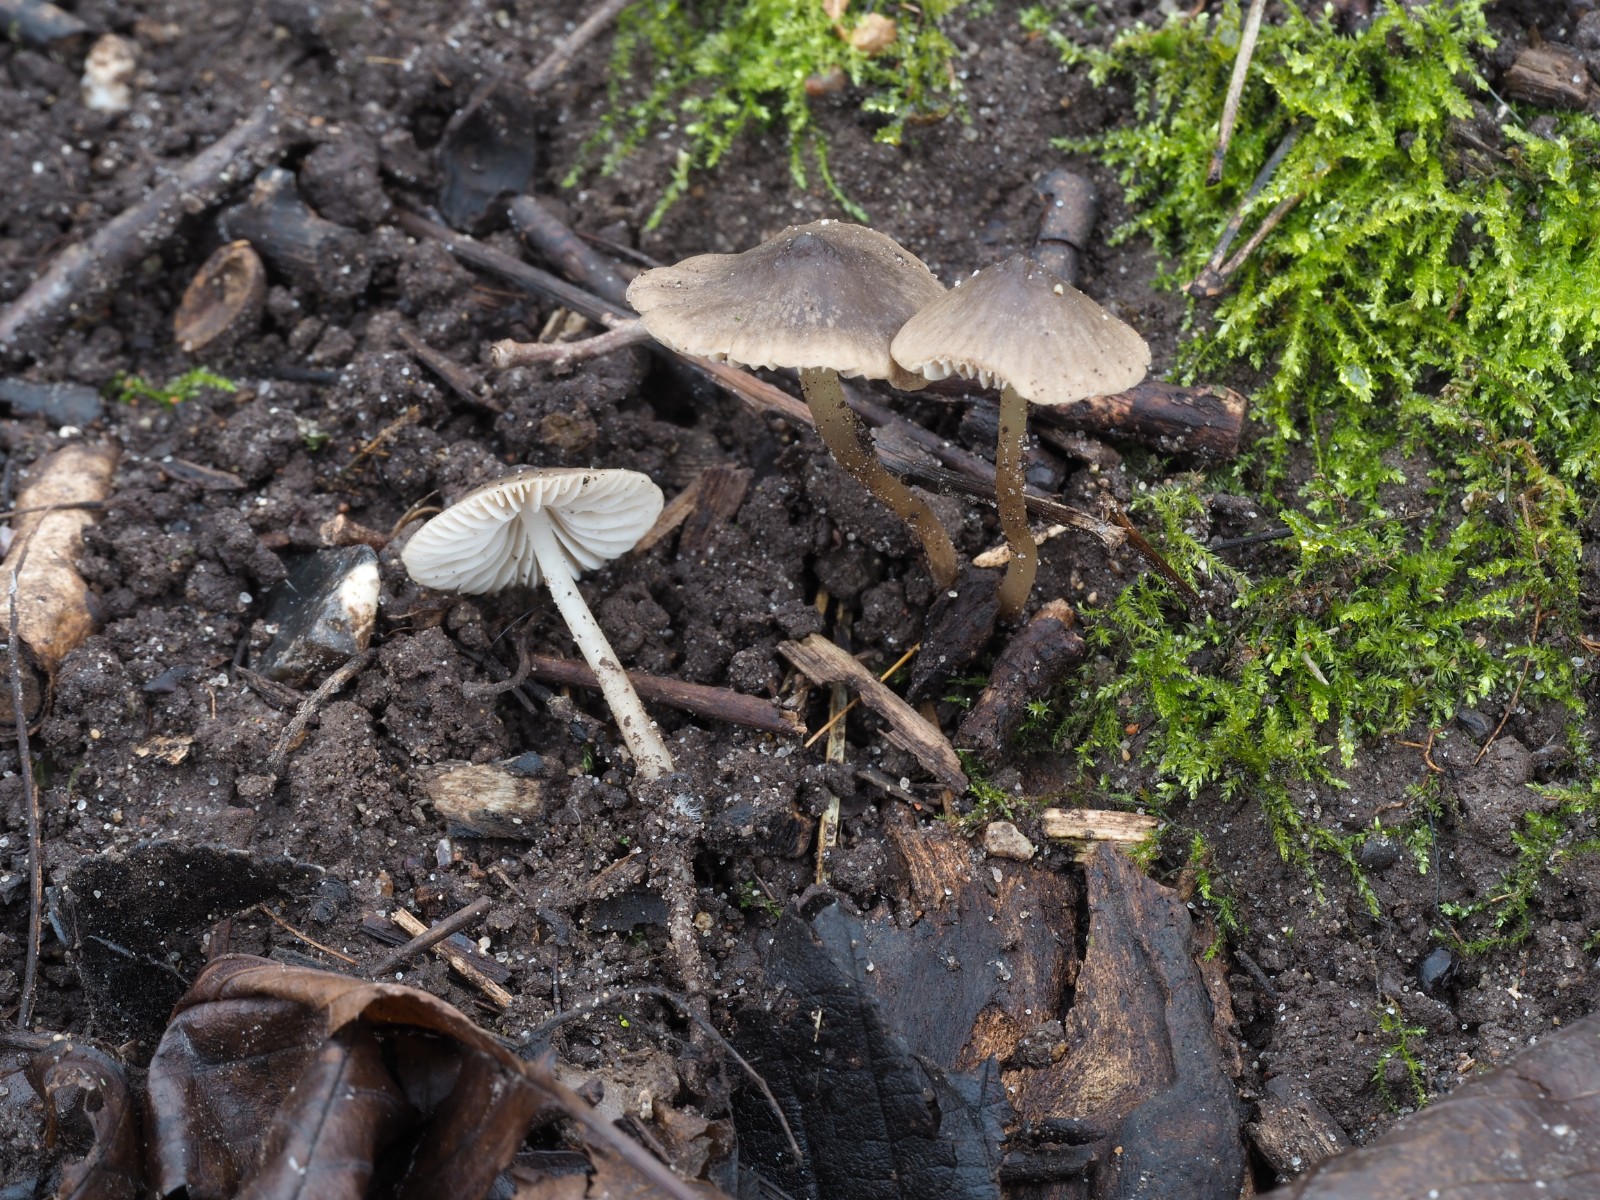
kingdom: Fungi
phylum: Basidiomycota
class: Agaricomycetes
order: Agaricales
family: Porotheleaceae
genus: Phloeomana
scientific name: Phloeomana atropapillata
